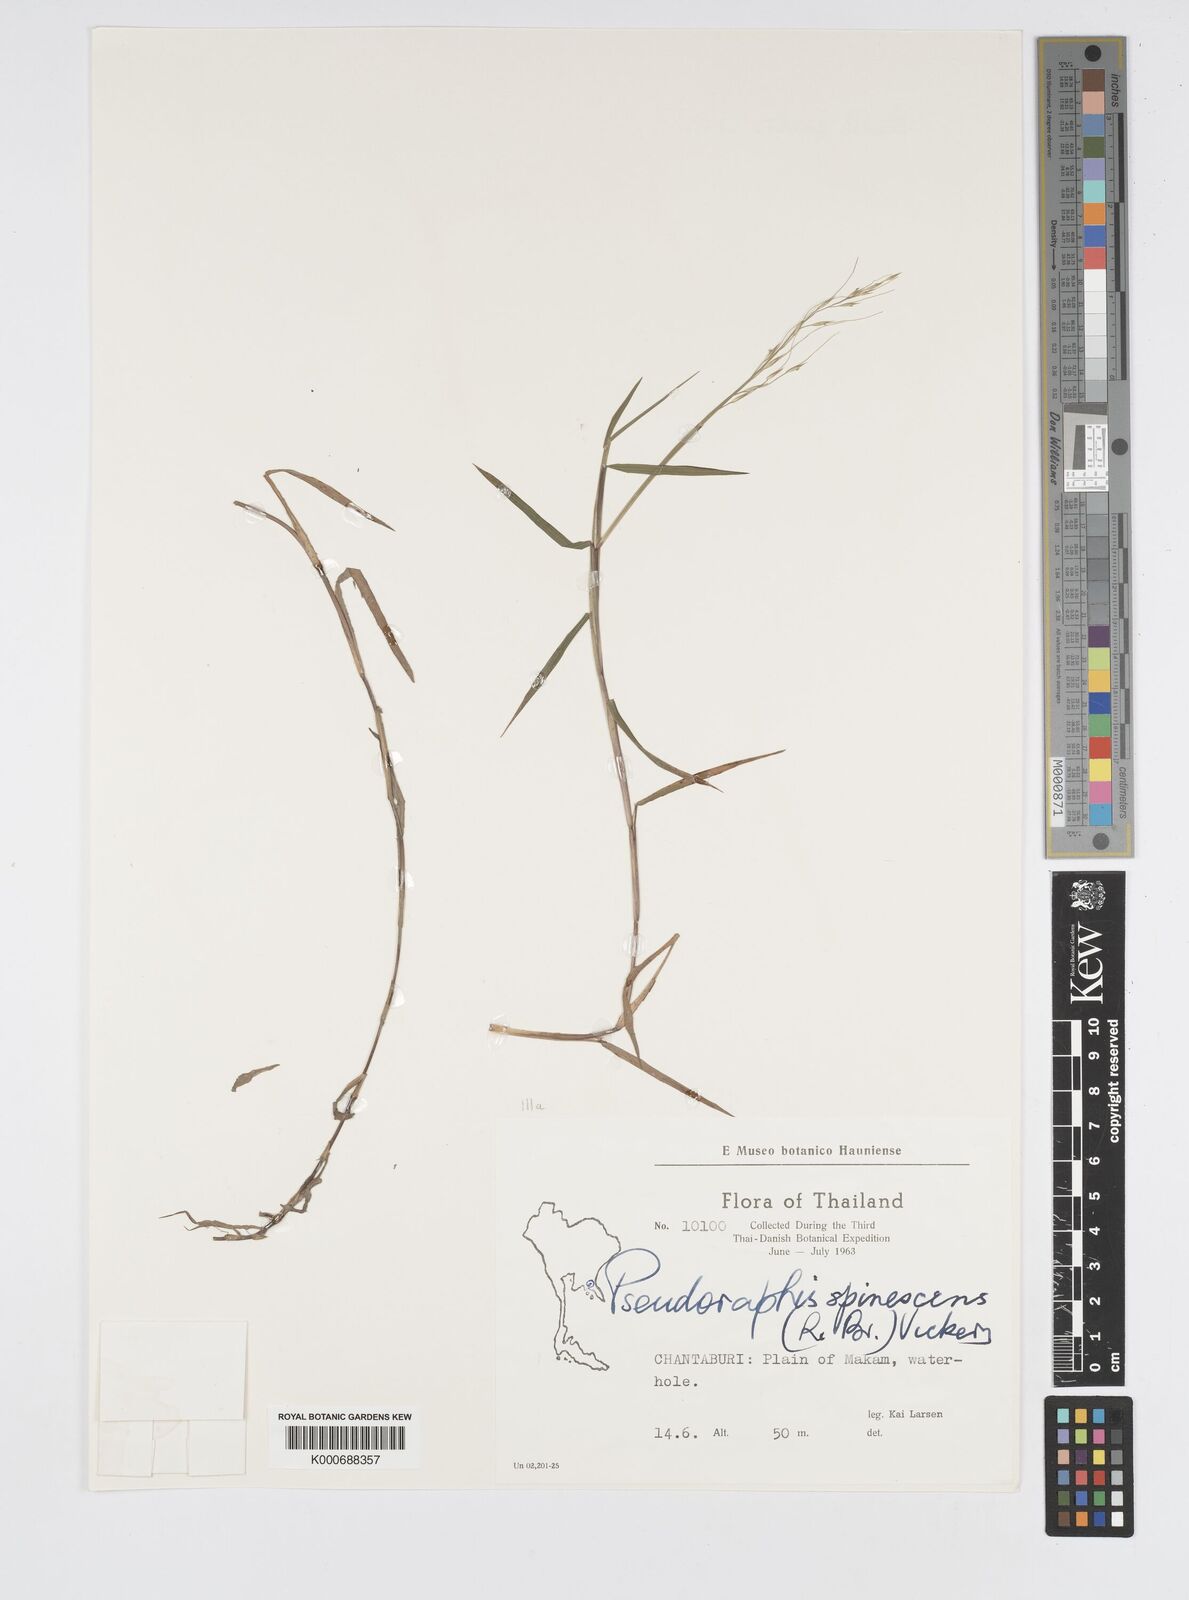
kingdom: Plantae
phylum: Tracheophyta
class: Liliopsida
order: Poales
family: Poaceae
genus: Pseudoraphis
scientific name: Pseudoraphis brunoniana
